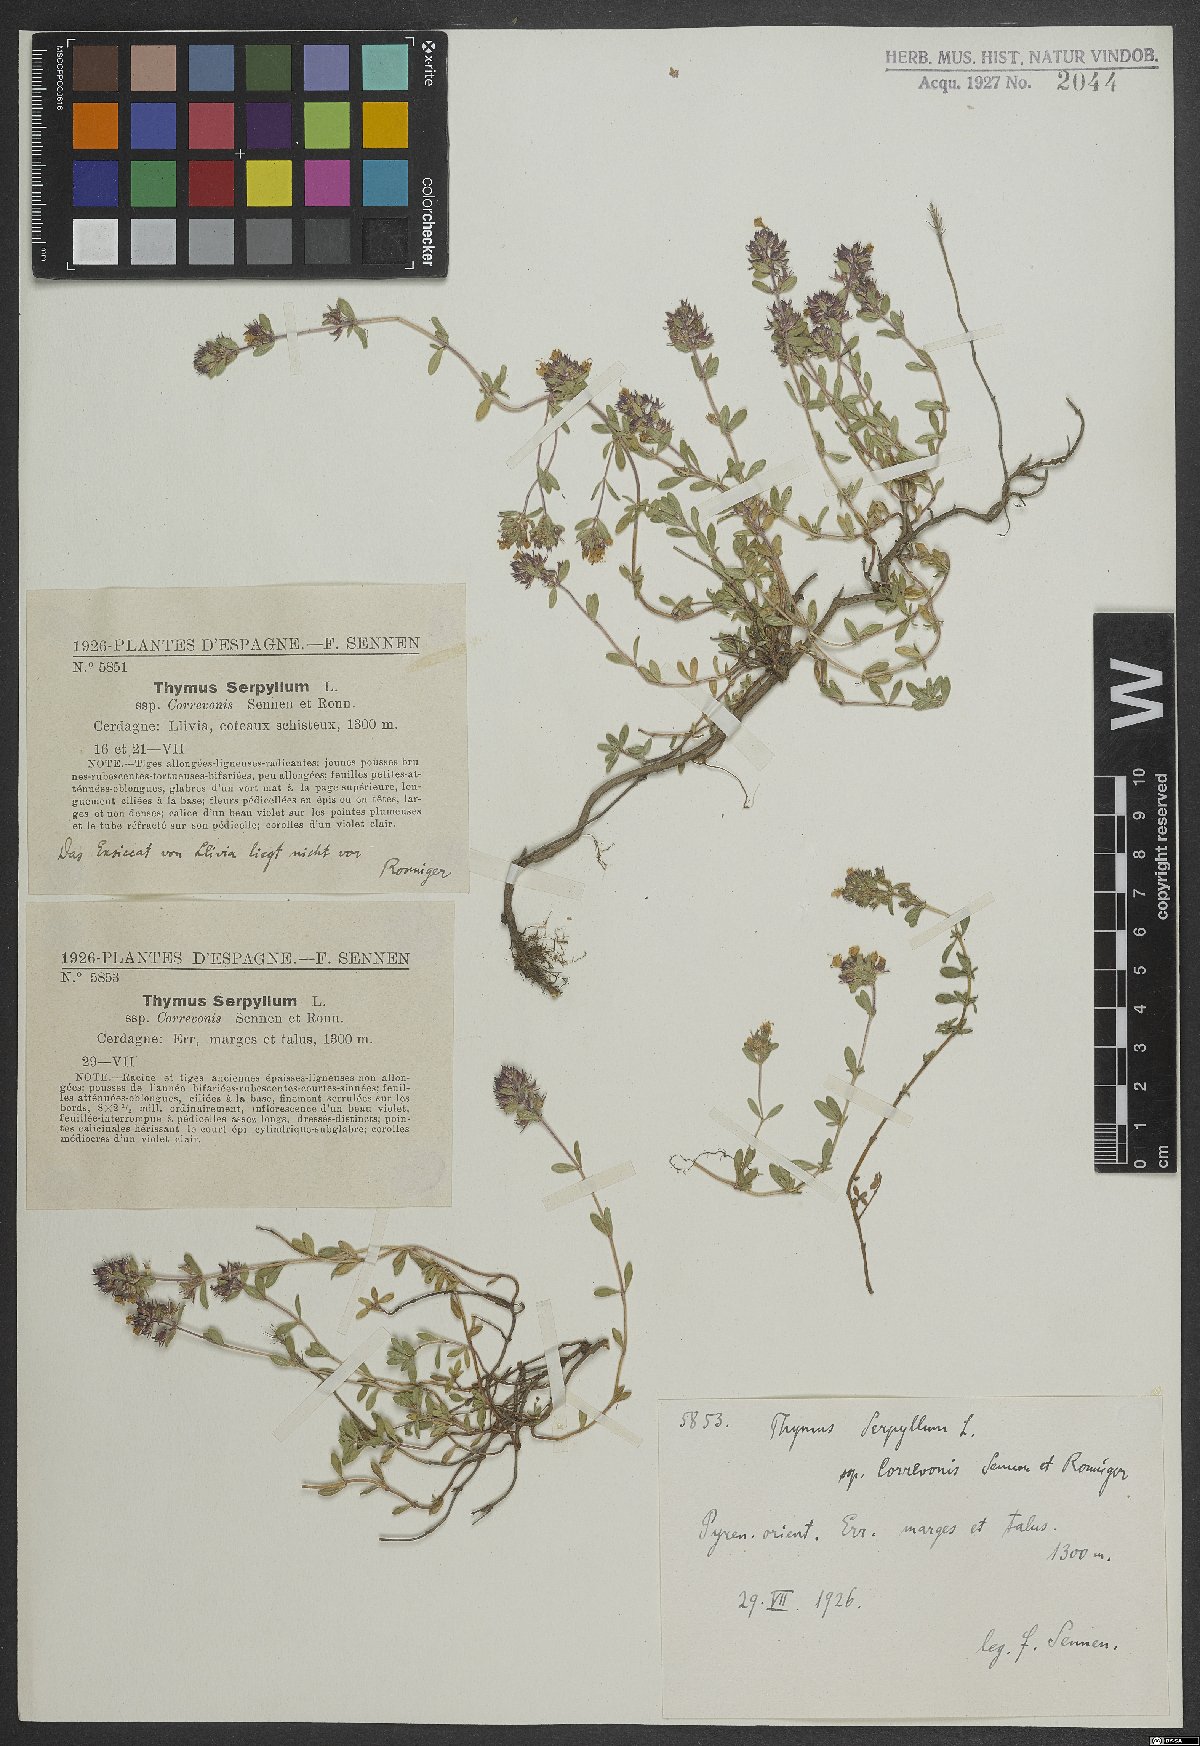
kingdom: Plantae
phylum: Tracheophyta
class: Magnoliopsida
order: Lamiales
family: Lamiaceae
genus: Thymus
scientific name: Thymus serpyllum
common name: Breckland thyme
